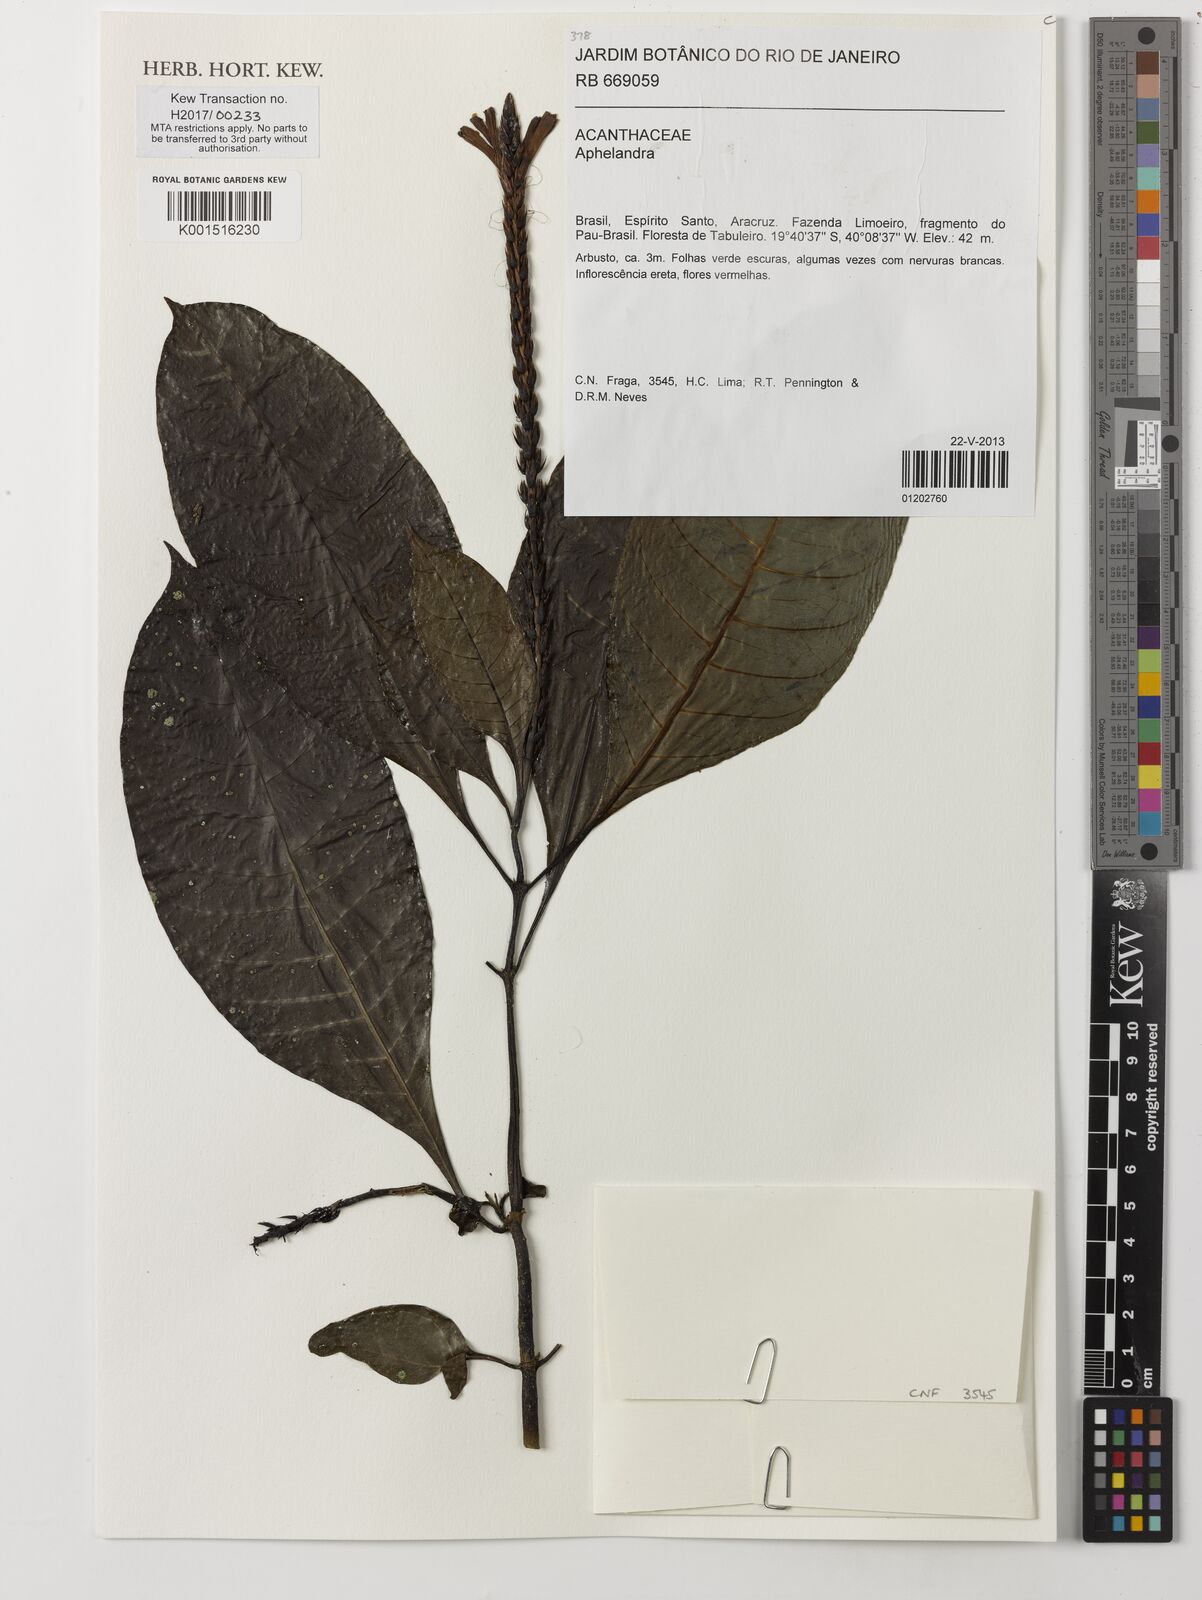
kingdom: Plantae
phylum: Tracheophyta
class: Magnoliopsida
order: Lamiales
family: Acanthaceae
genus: Aphelandra
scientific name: Aphelandra
